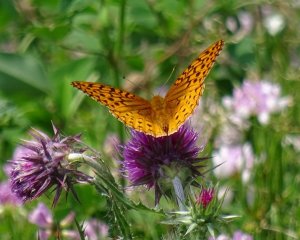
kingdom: Animalia
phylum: Arthropoda
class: Insecta
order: Lepidoptera
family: Nymphalidae
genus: Speyeria
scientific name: Speyeria cybele
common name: Great Spangled Fritillary
